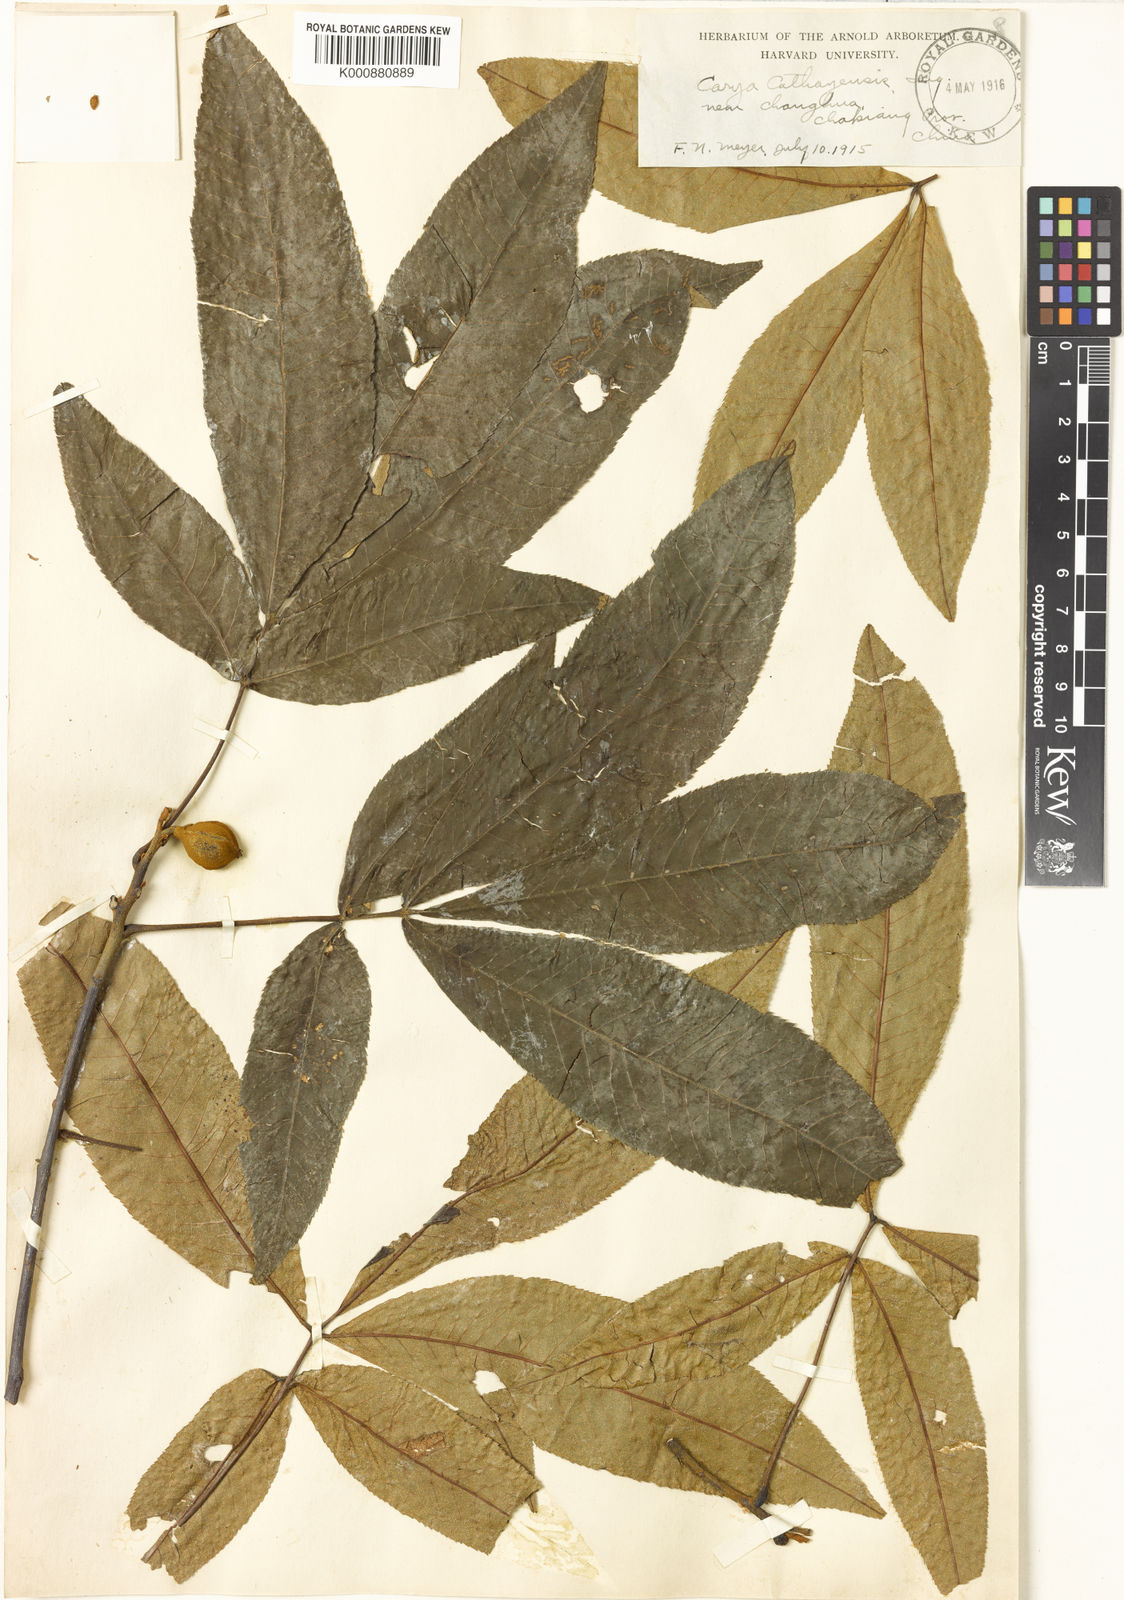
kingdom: Plantae
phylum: Tracheophyta
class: Magnoliopsida
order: Fagales
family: Juglandaceae
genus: Carya
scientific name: Carya cathayensis
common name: Cathay hickory
